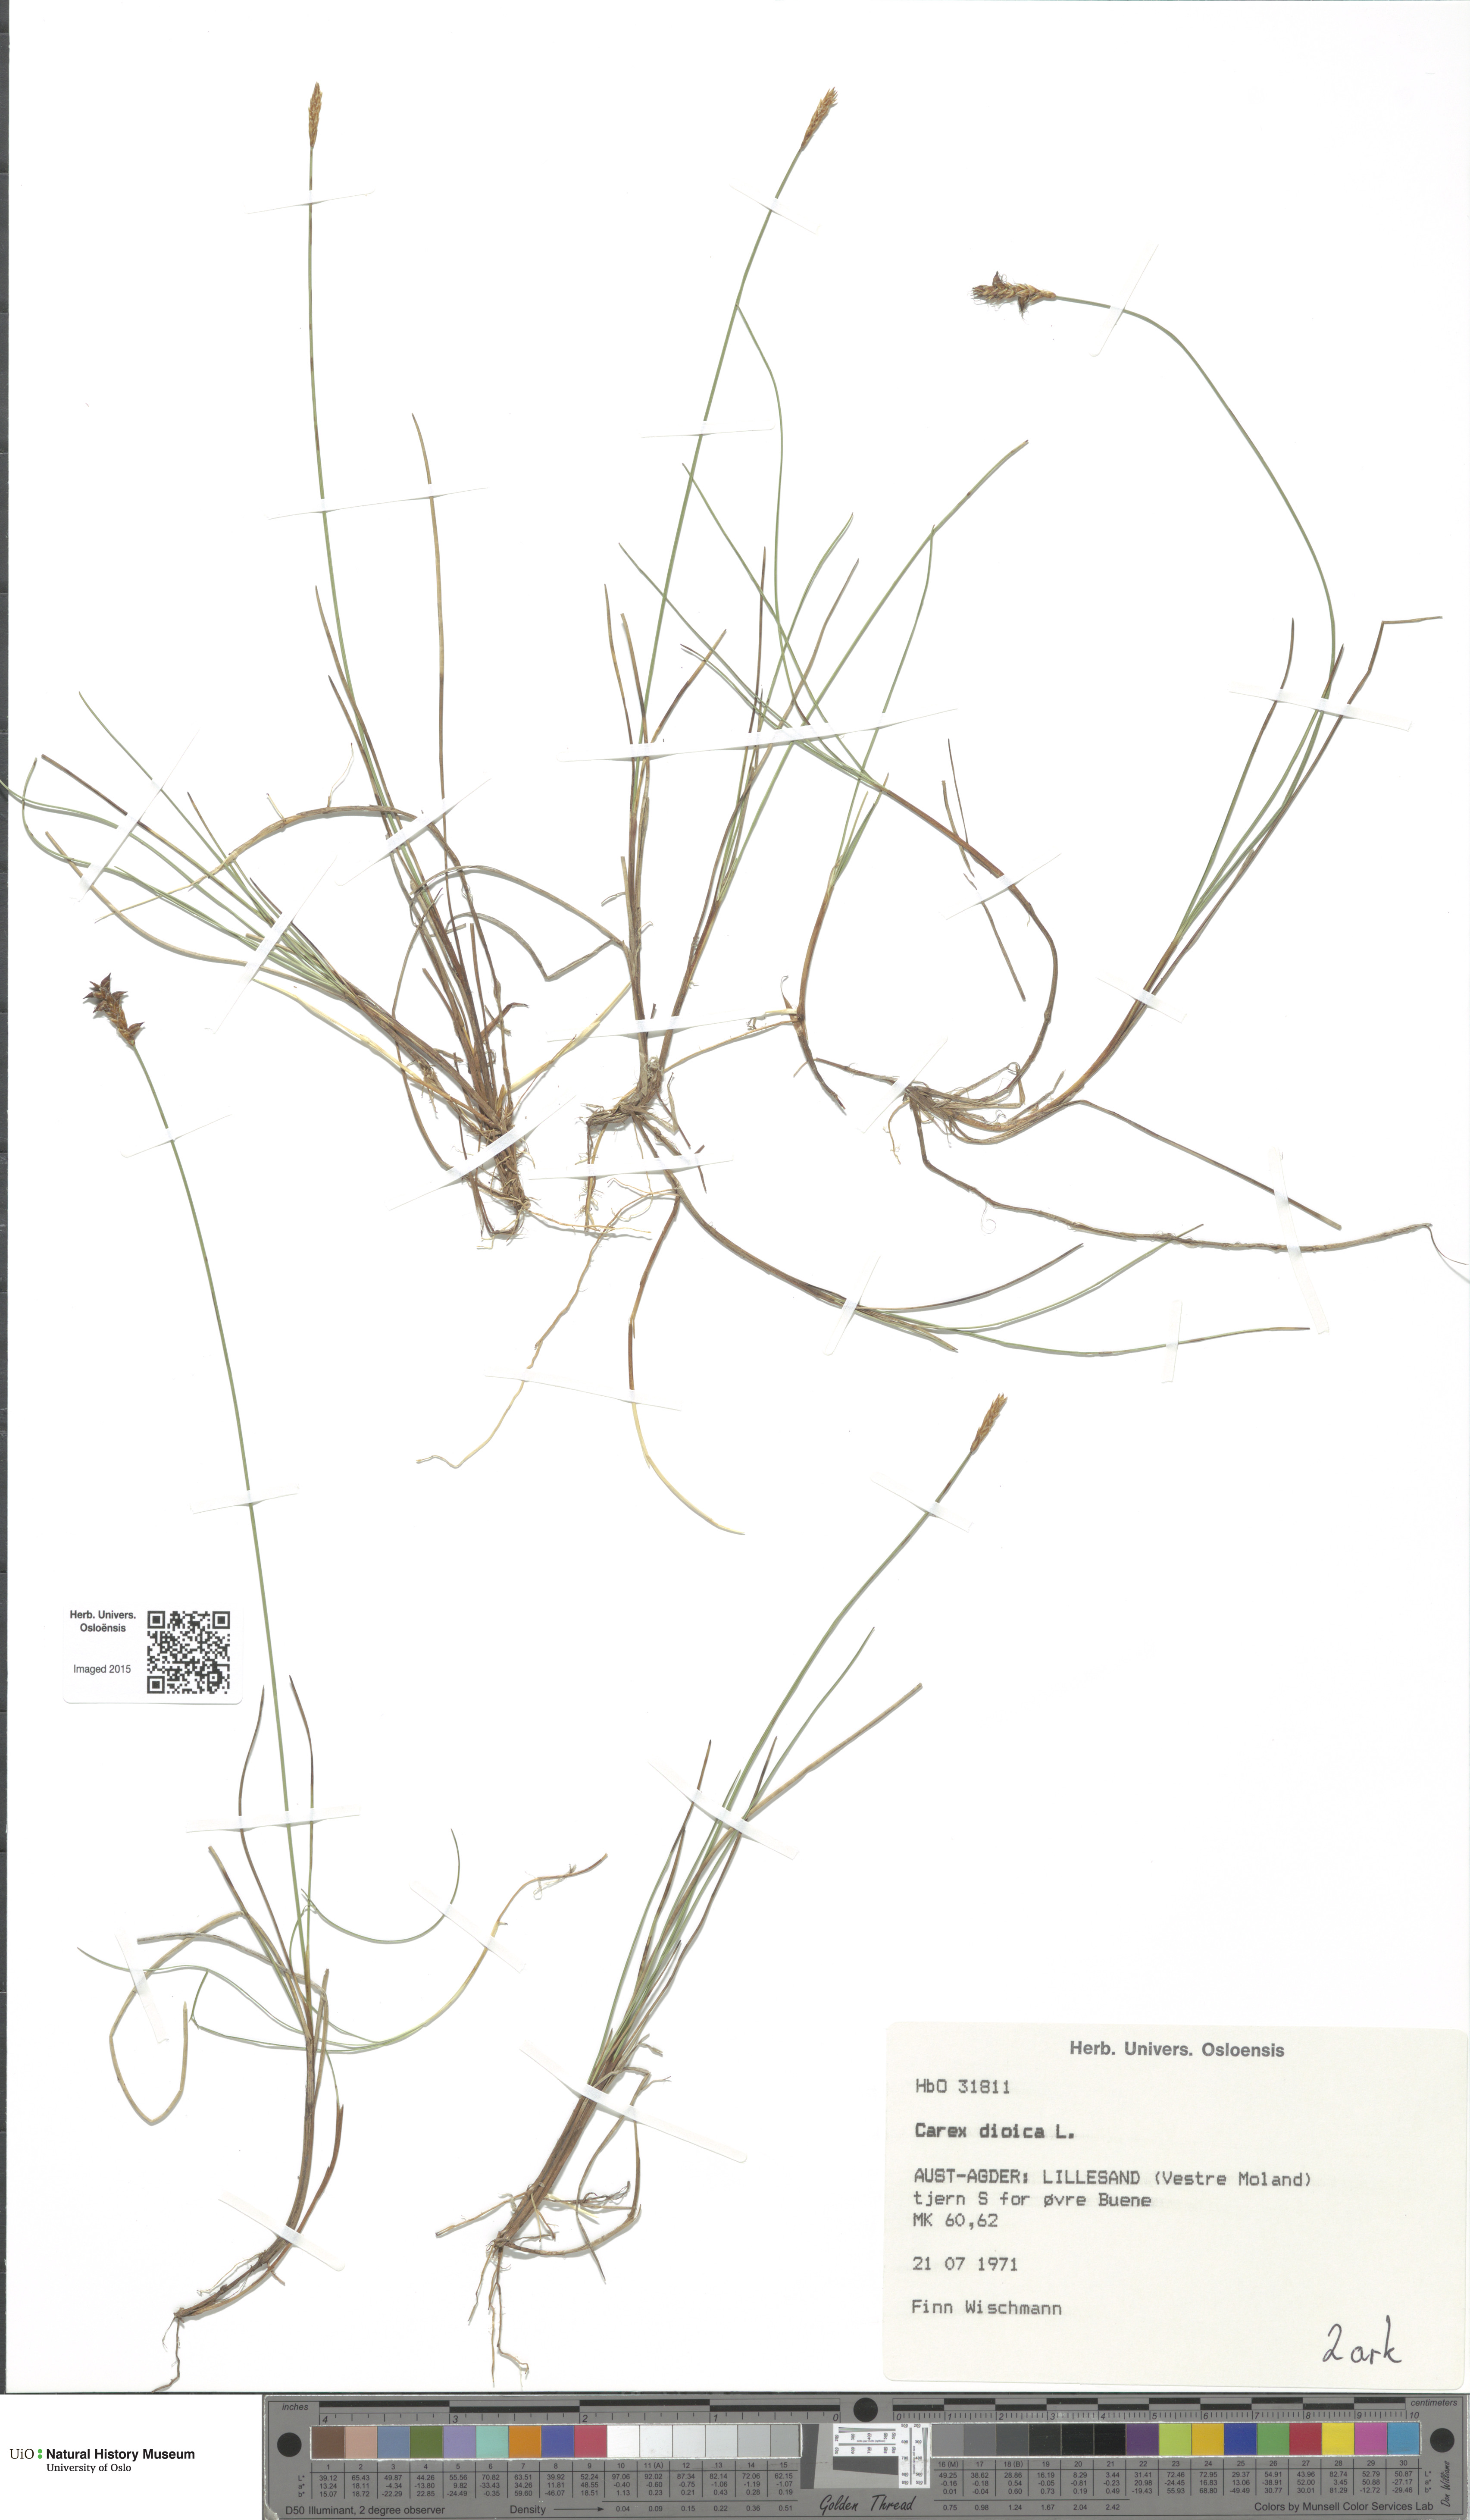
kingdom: Plantae
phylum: Tracheophyta
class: Liliopsida
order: Poales
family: Cyperaceae
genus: Carex
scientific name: Carex dioica
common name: Dioecious sedge
